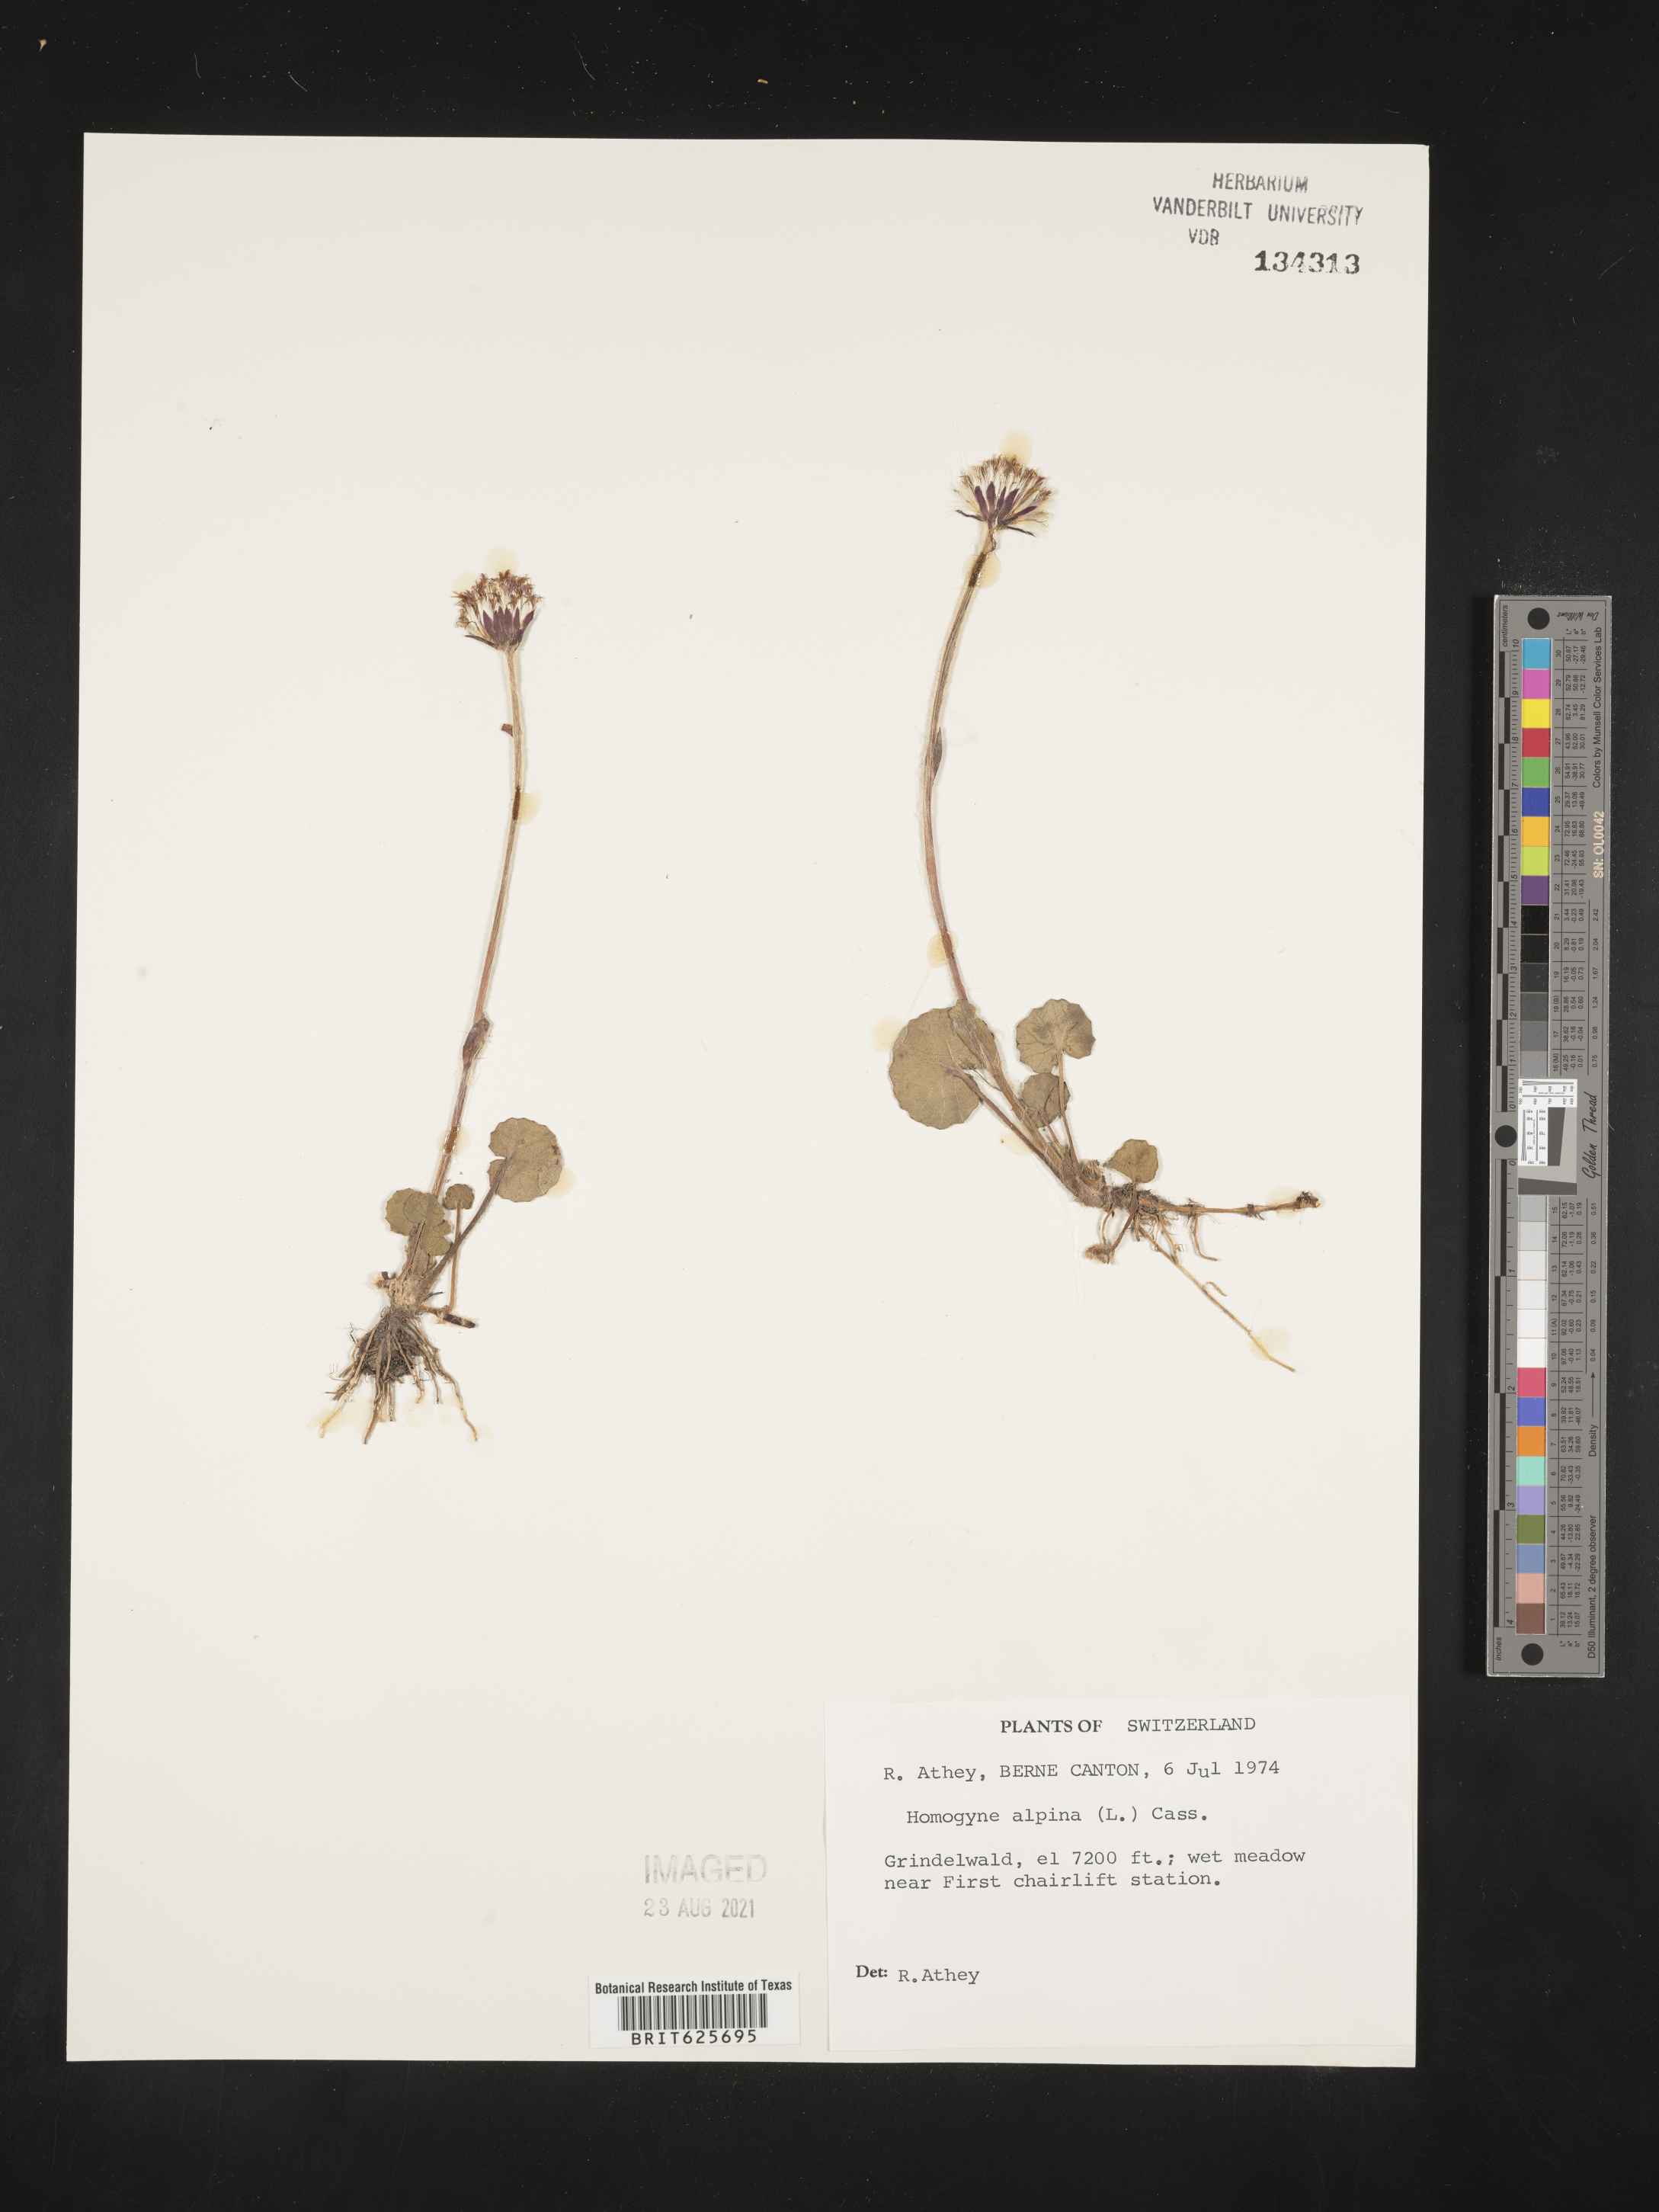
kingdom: Plantae
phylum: Tracheophyta
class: Magnoliopsida
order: Asterales
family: Asteraceae
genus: Homogyne
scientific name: Homogyne alpina
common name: Purple colt's-foot
